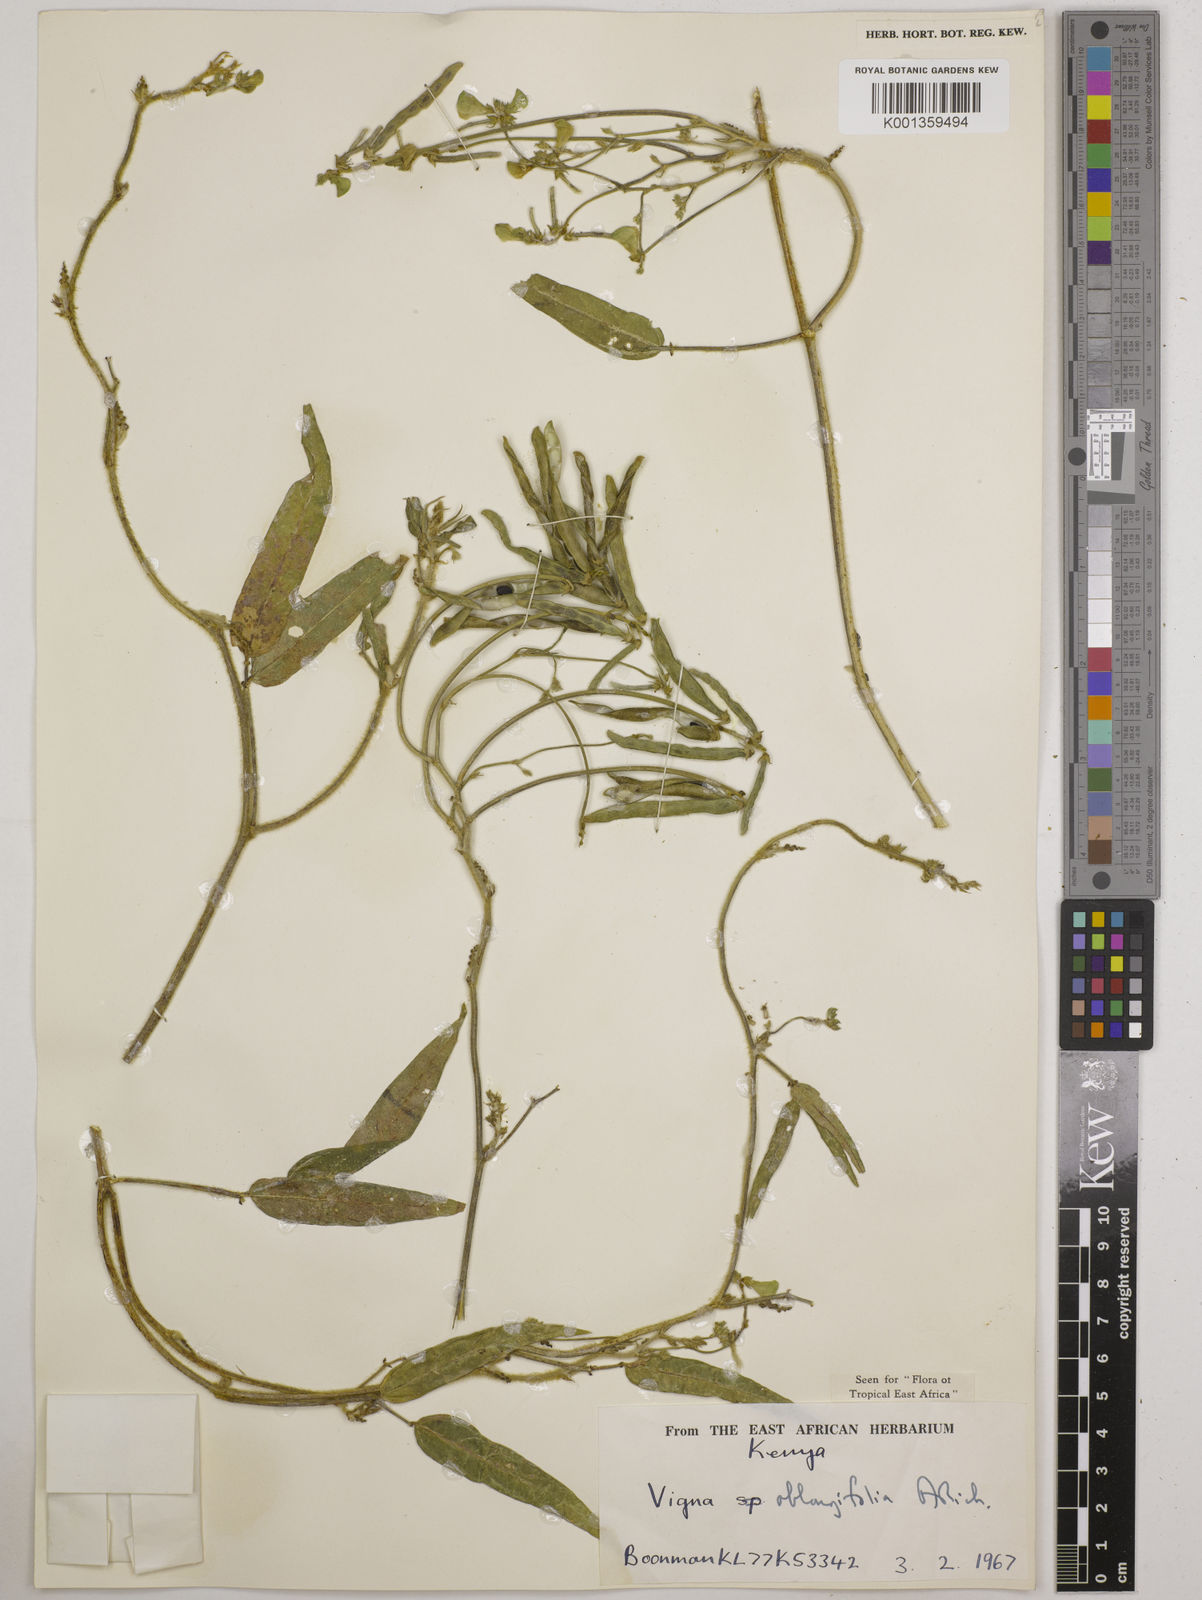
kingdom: Plantae
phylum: Tracheophyta
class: Magnoliopsida
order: Fabales
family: Fabaceae
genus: Vigna
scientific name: Vigna oblongifolia
